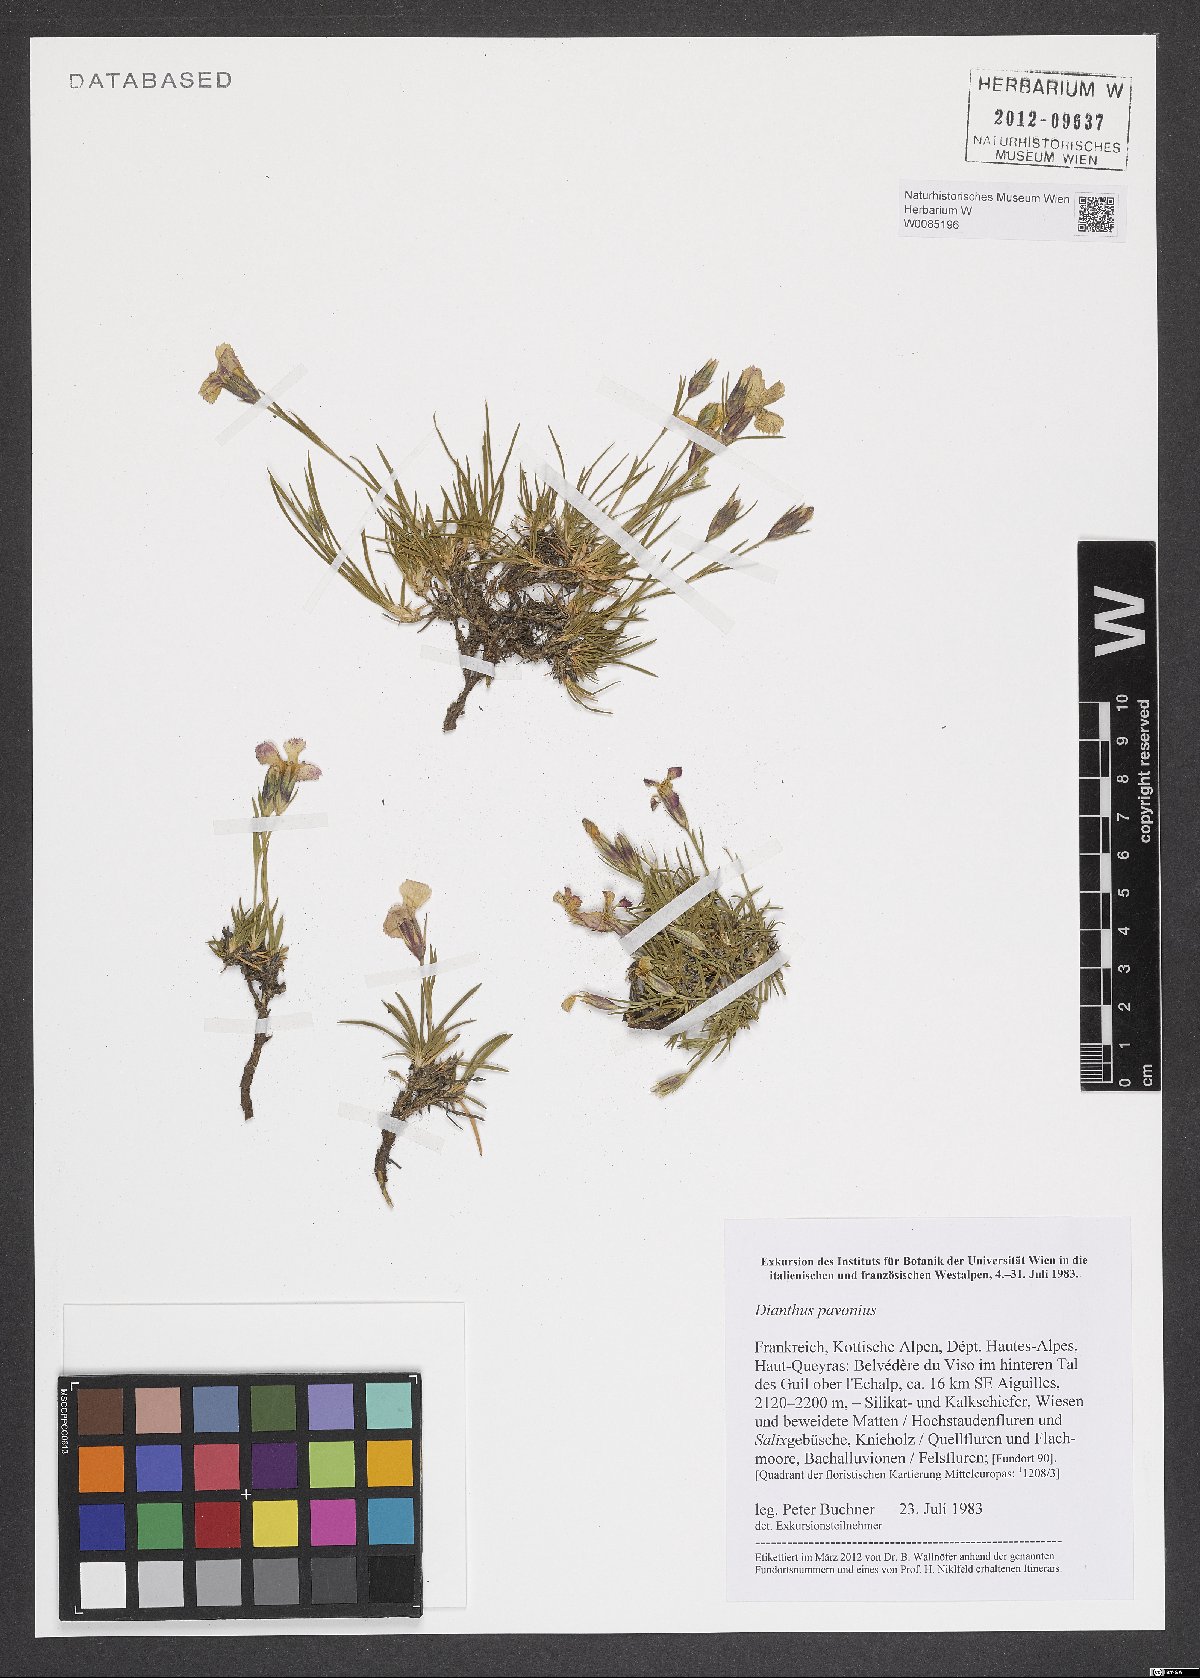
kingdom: Plantae
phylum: Tracheophyta
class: Magnoliopsida
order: Caryophyllales
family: Caryophyllaceae
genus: Dianthus
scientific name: Dianthus pavonius
